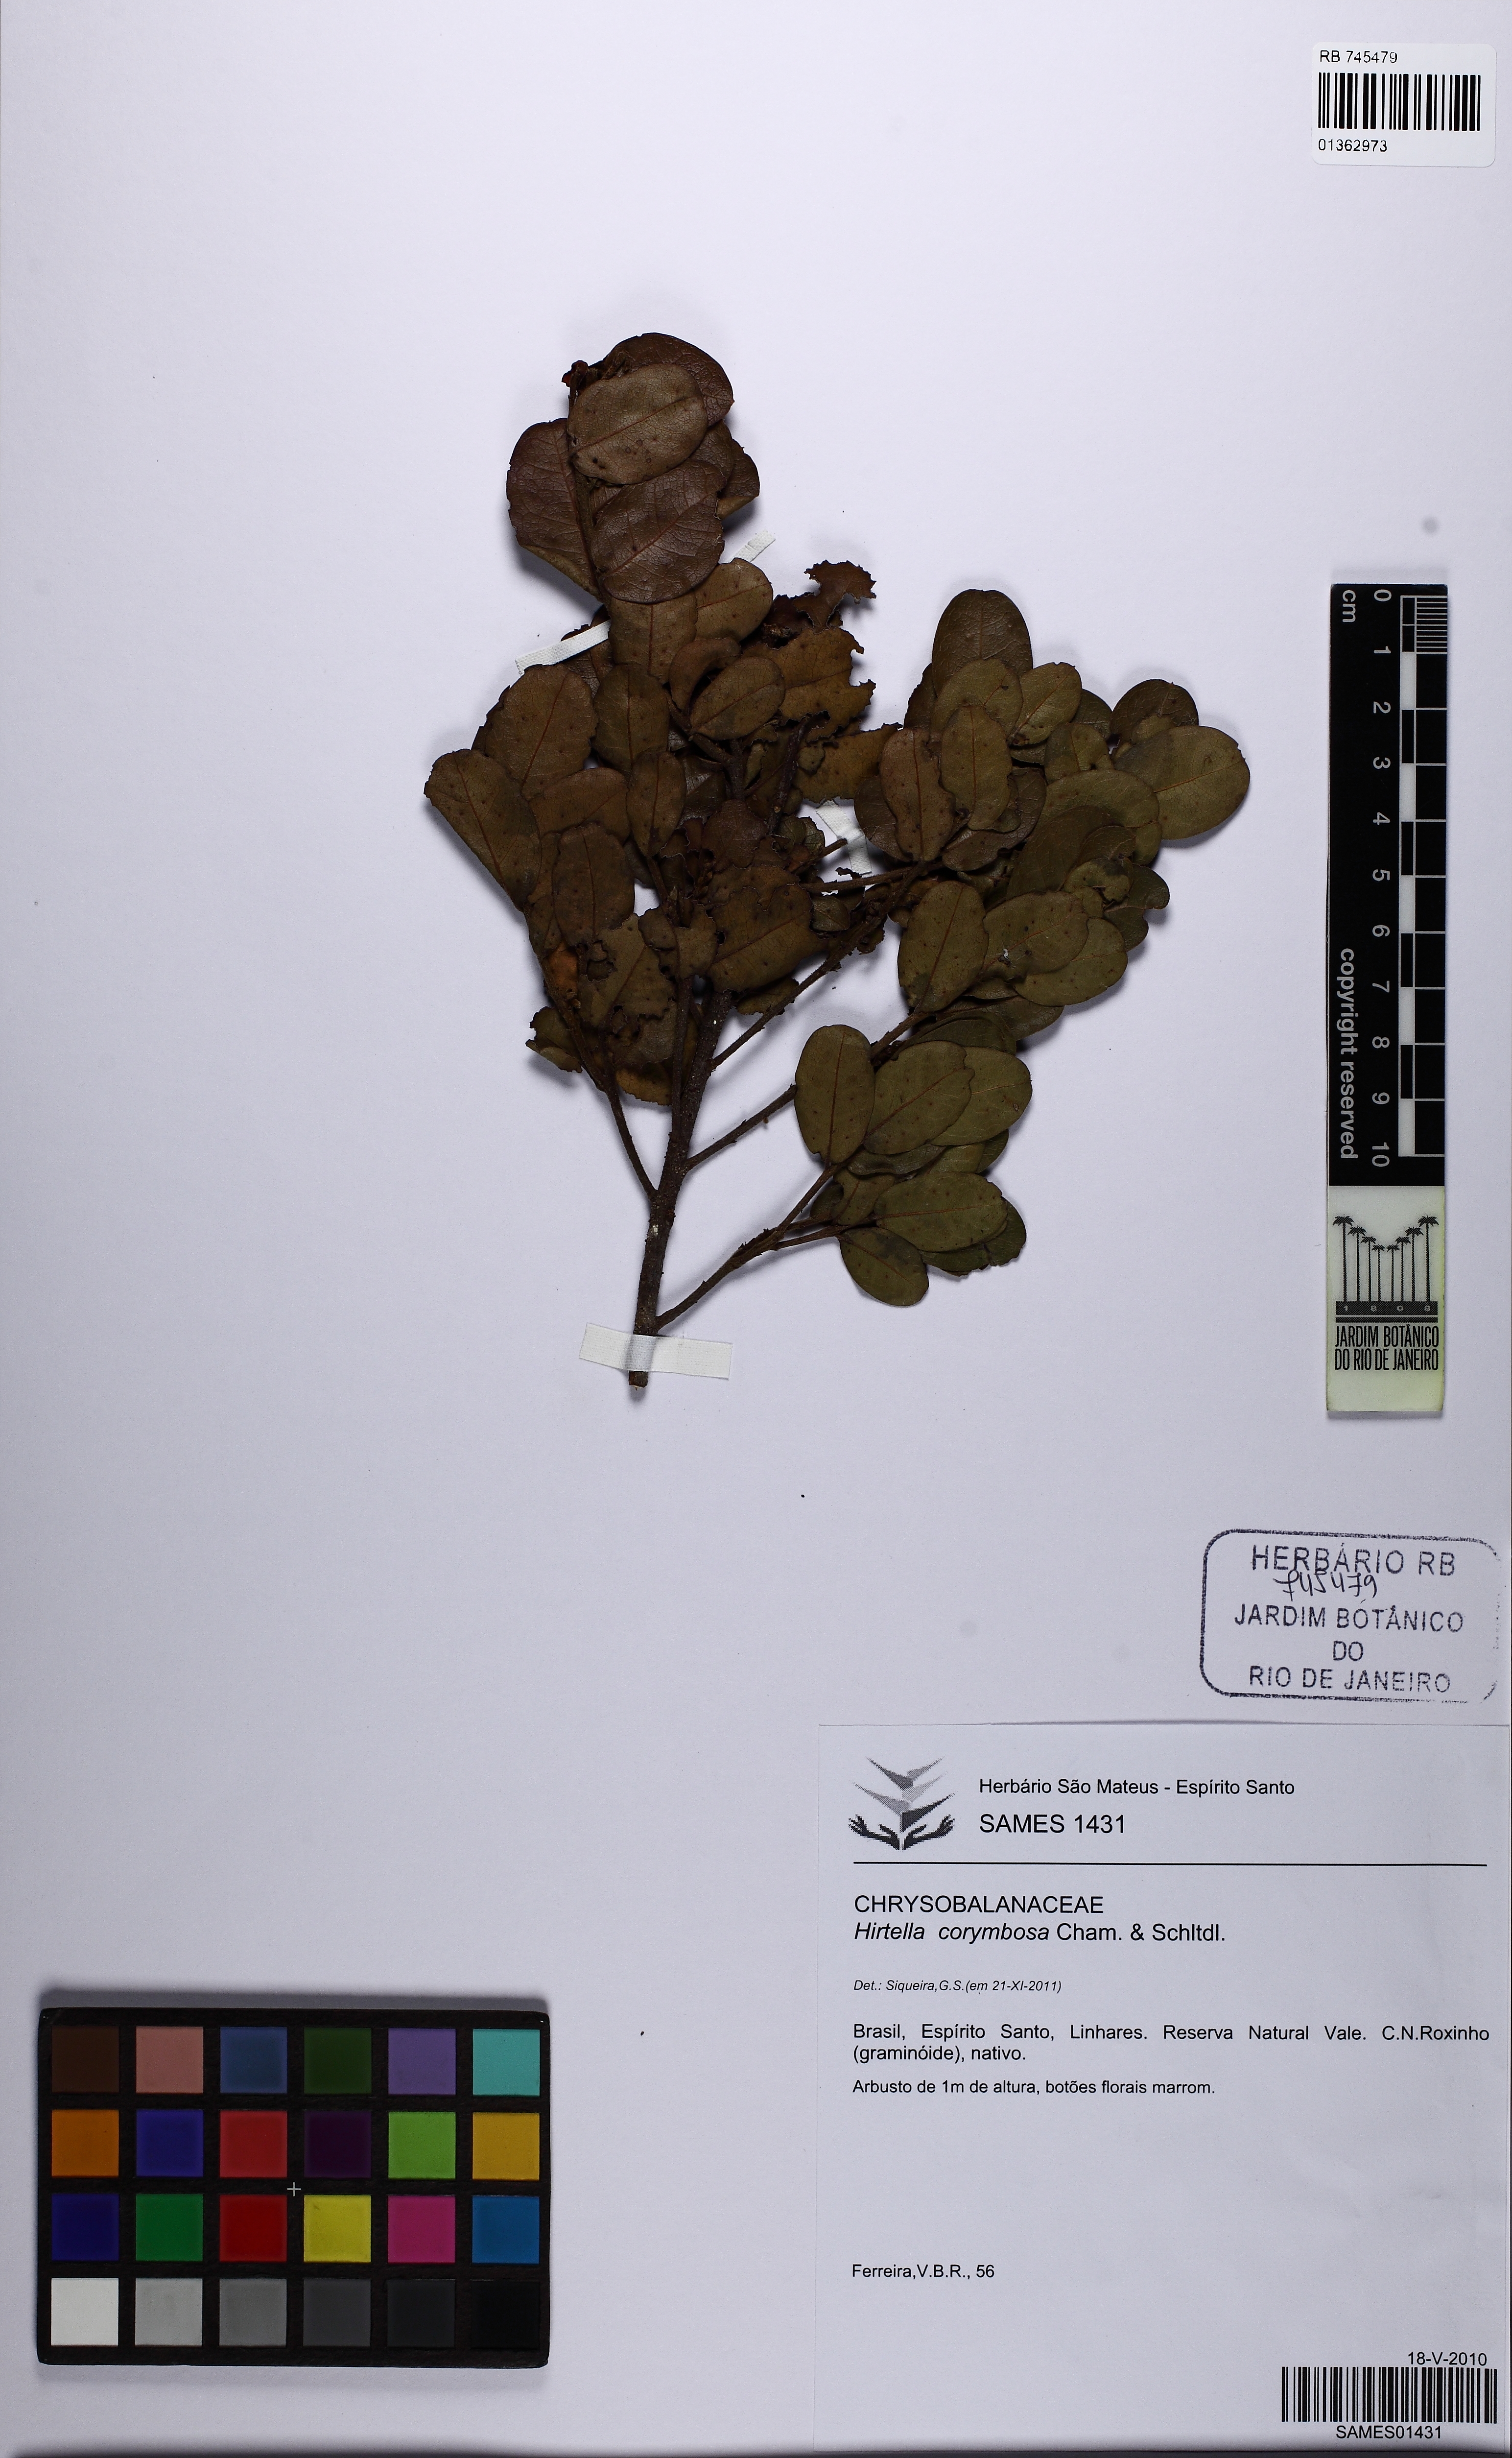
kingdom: Plantae
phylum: Tracheophyta
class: Magnoliopsida
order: Malpighiales
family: Chrysobalanaceae
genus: Hirtella
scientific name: Hirtella corymbosa
